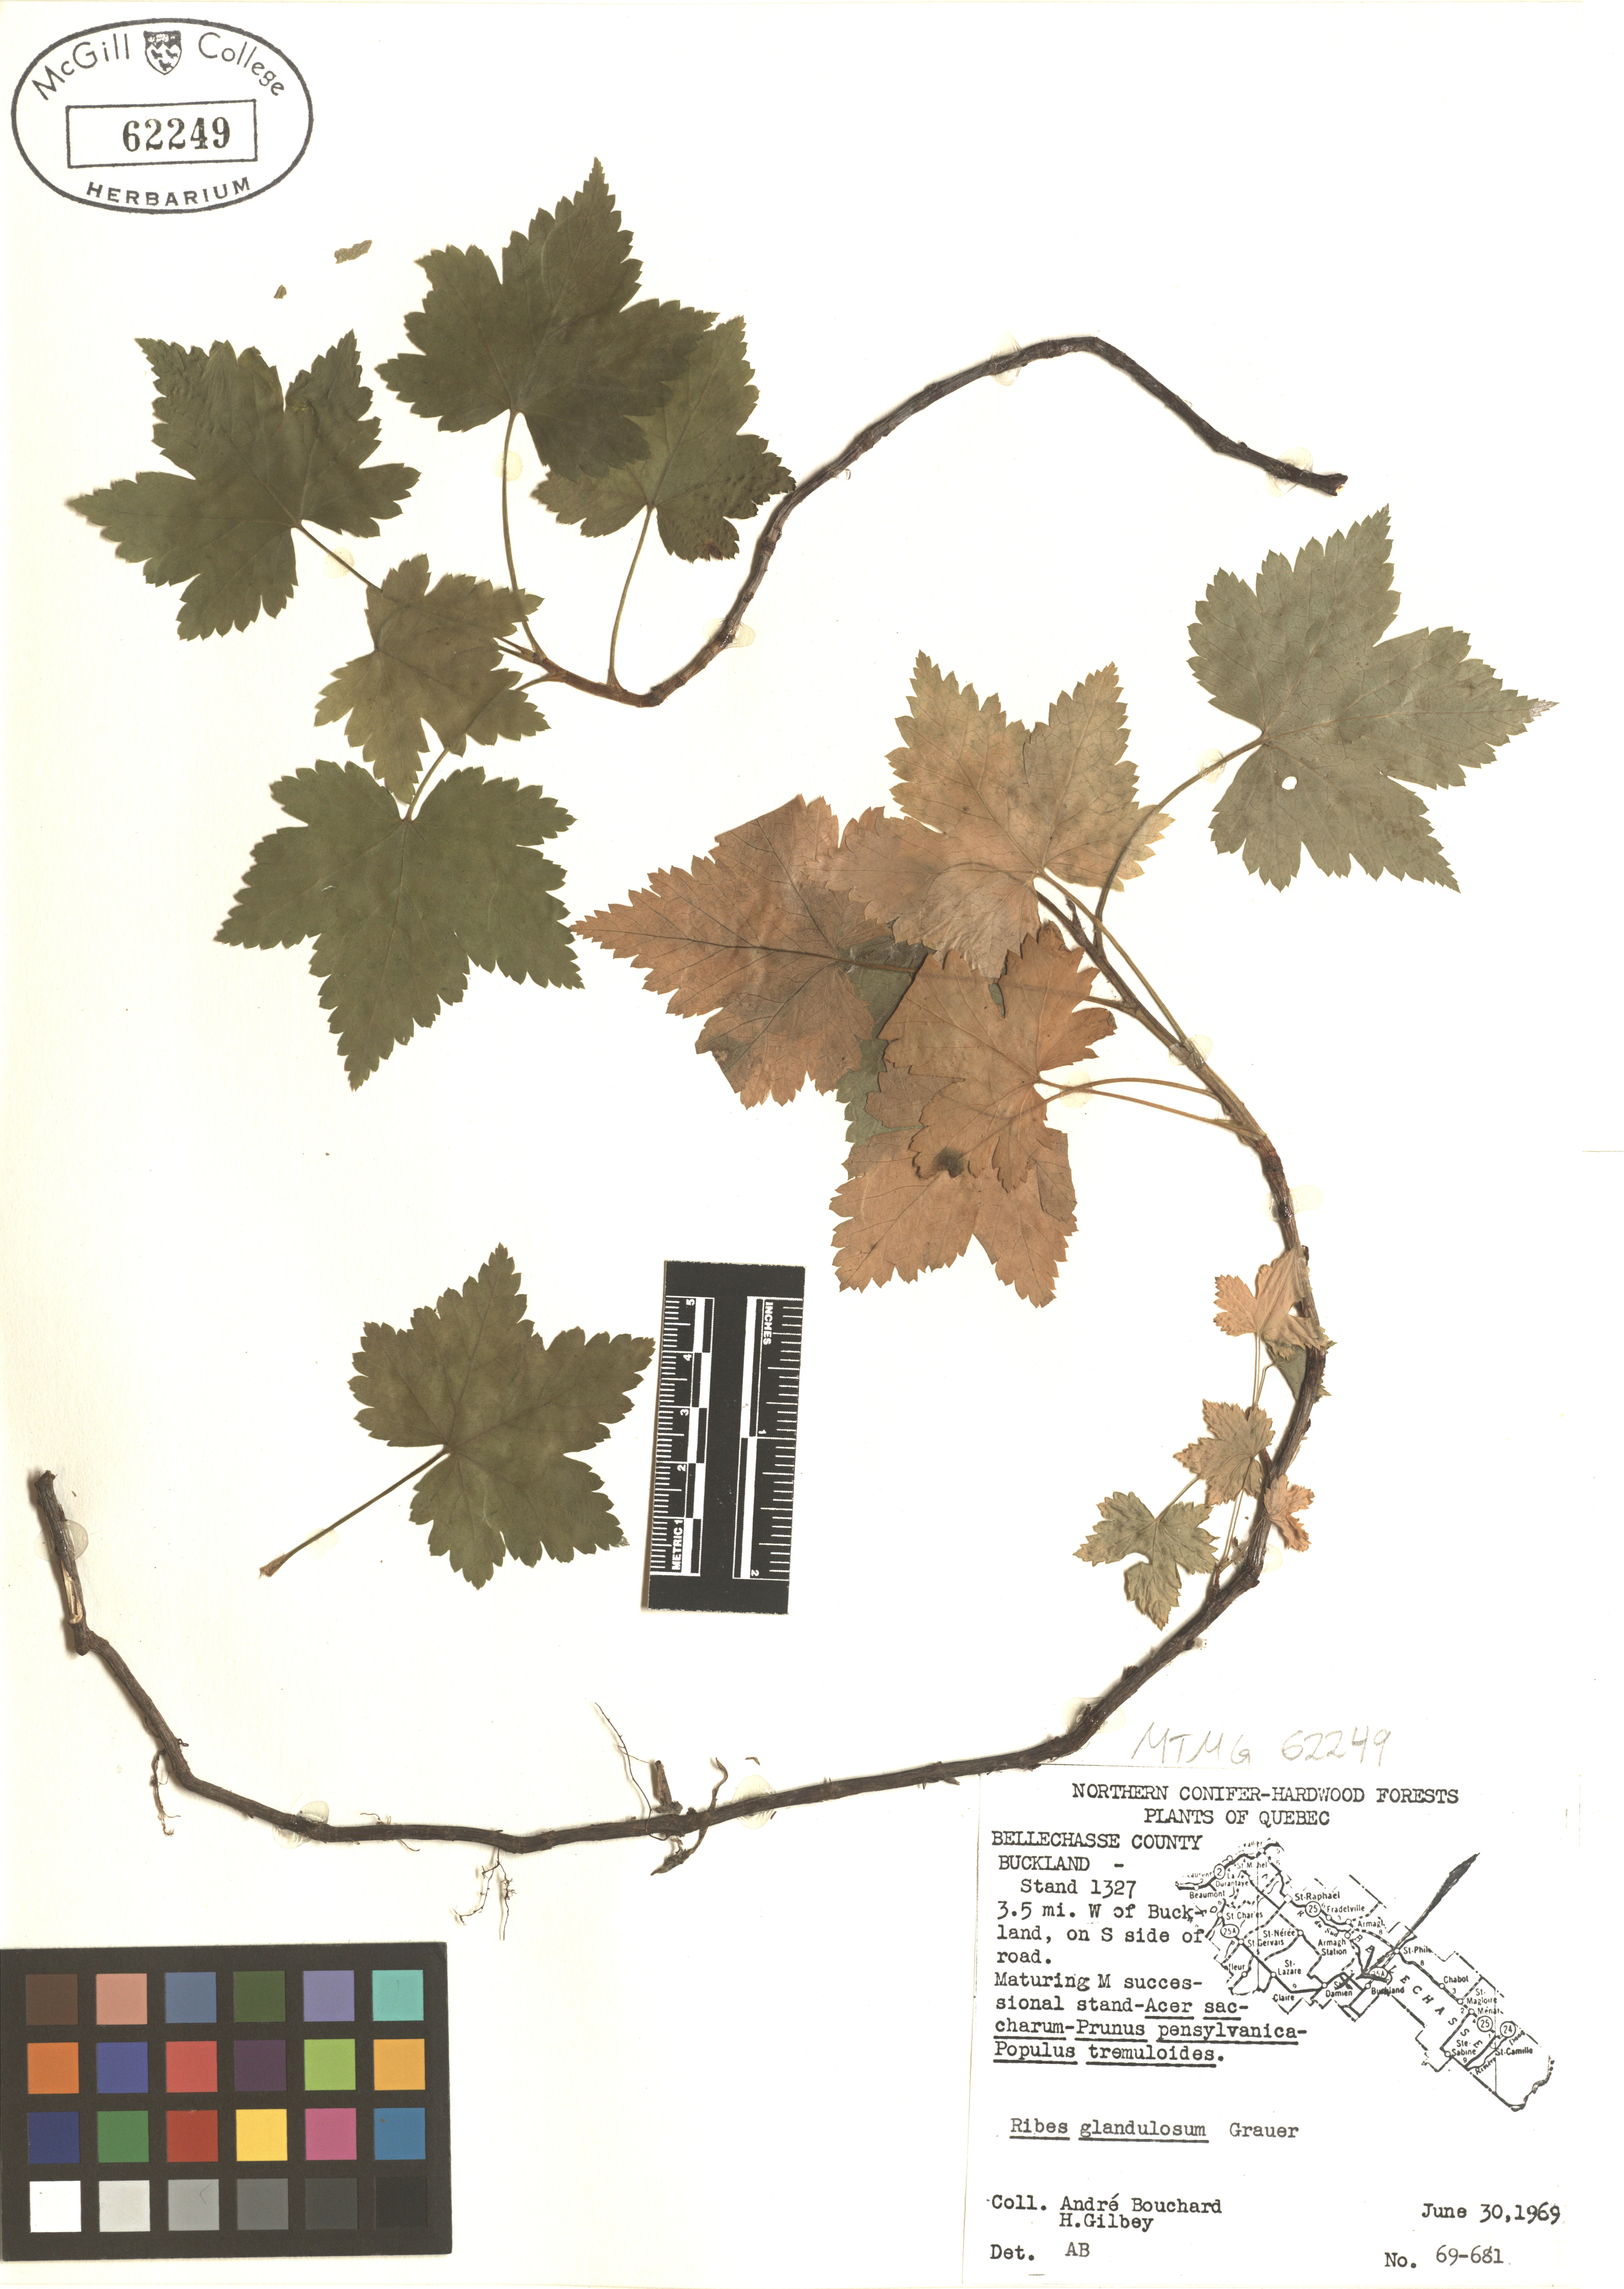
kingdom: Plantae
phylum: Tracheophyta
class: Magnoliopsida
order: Saxifragales
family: Grossulariaceae
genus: Ribes
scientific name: Ribes glandulosum
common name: Skunk currant
